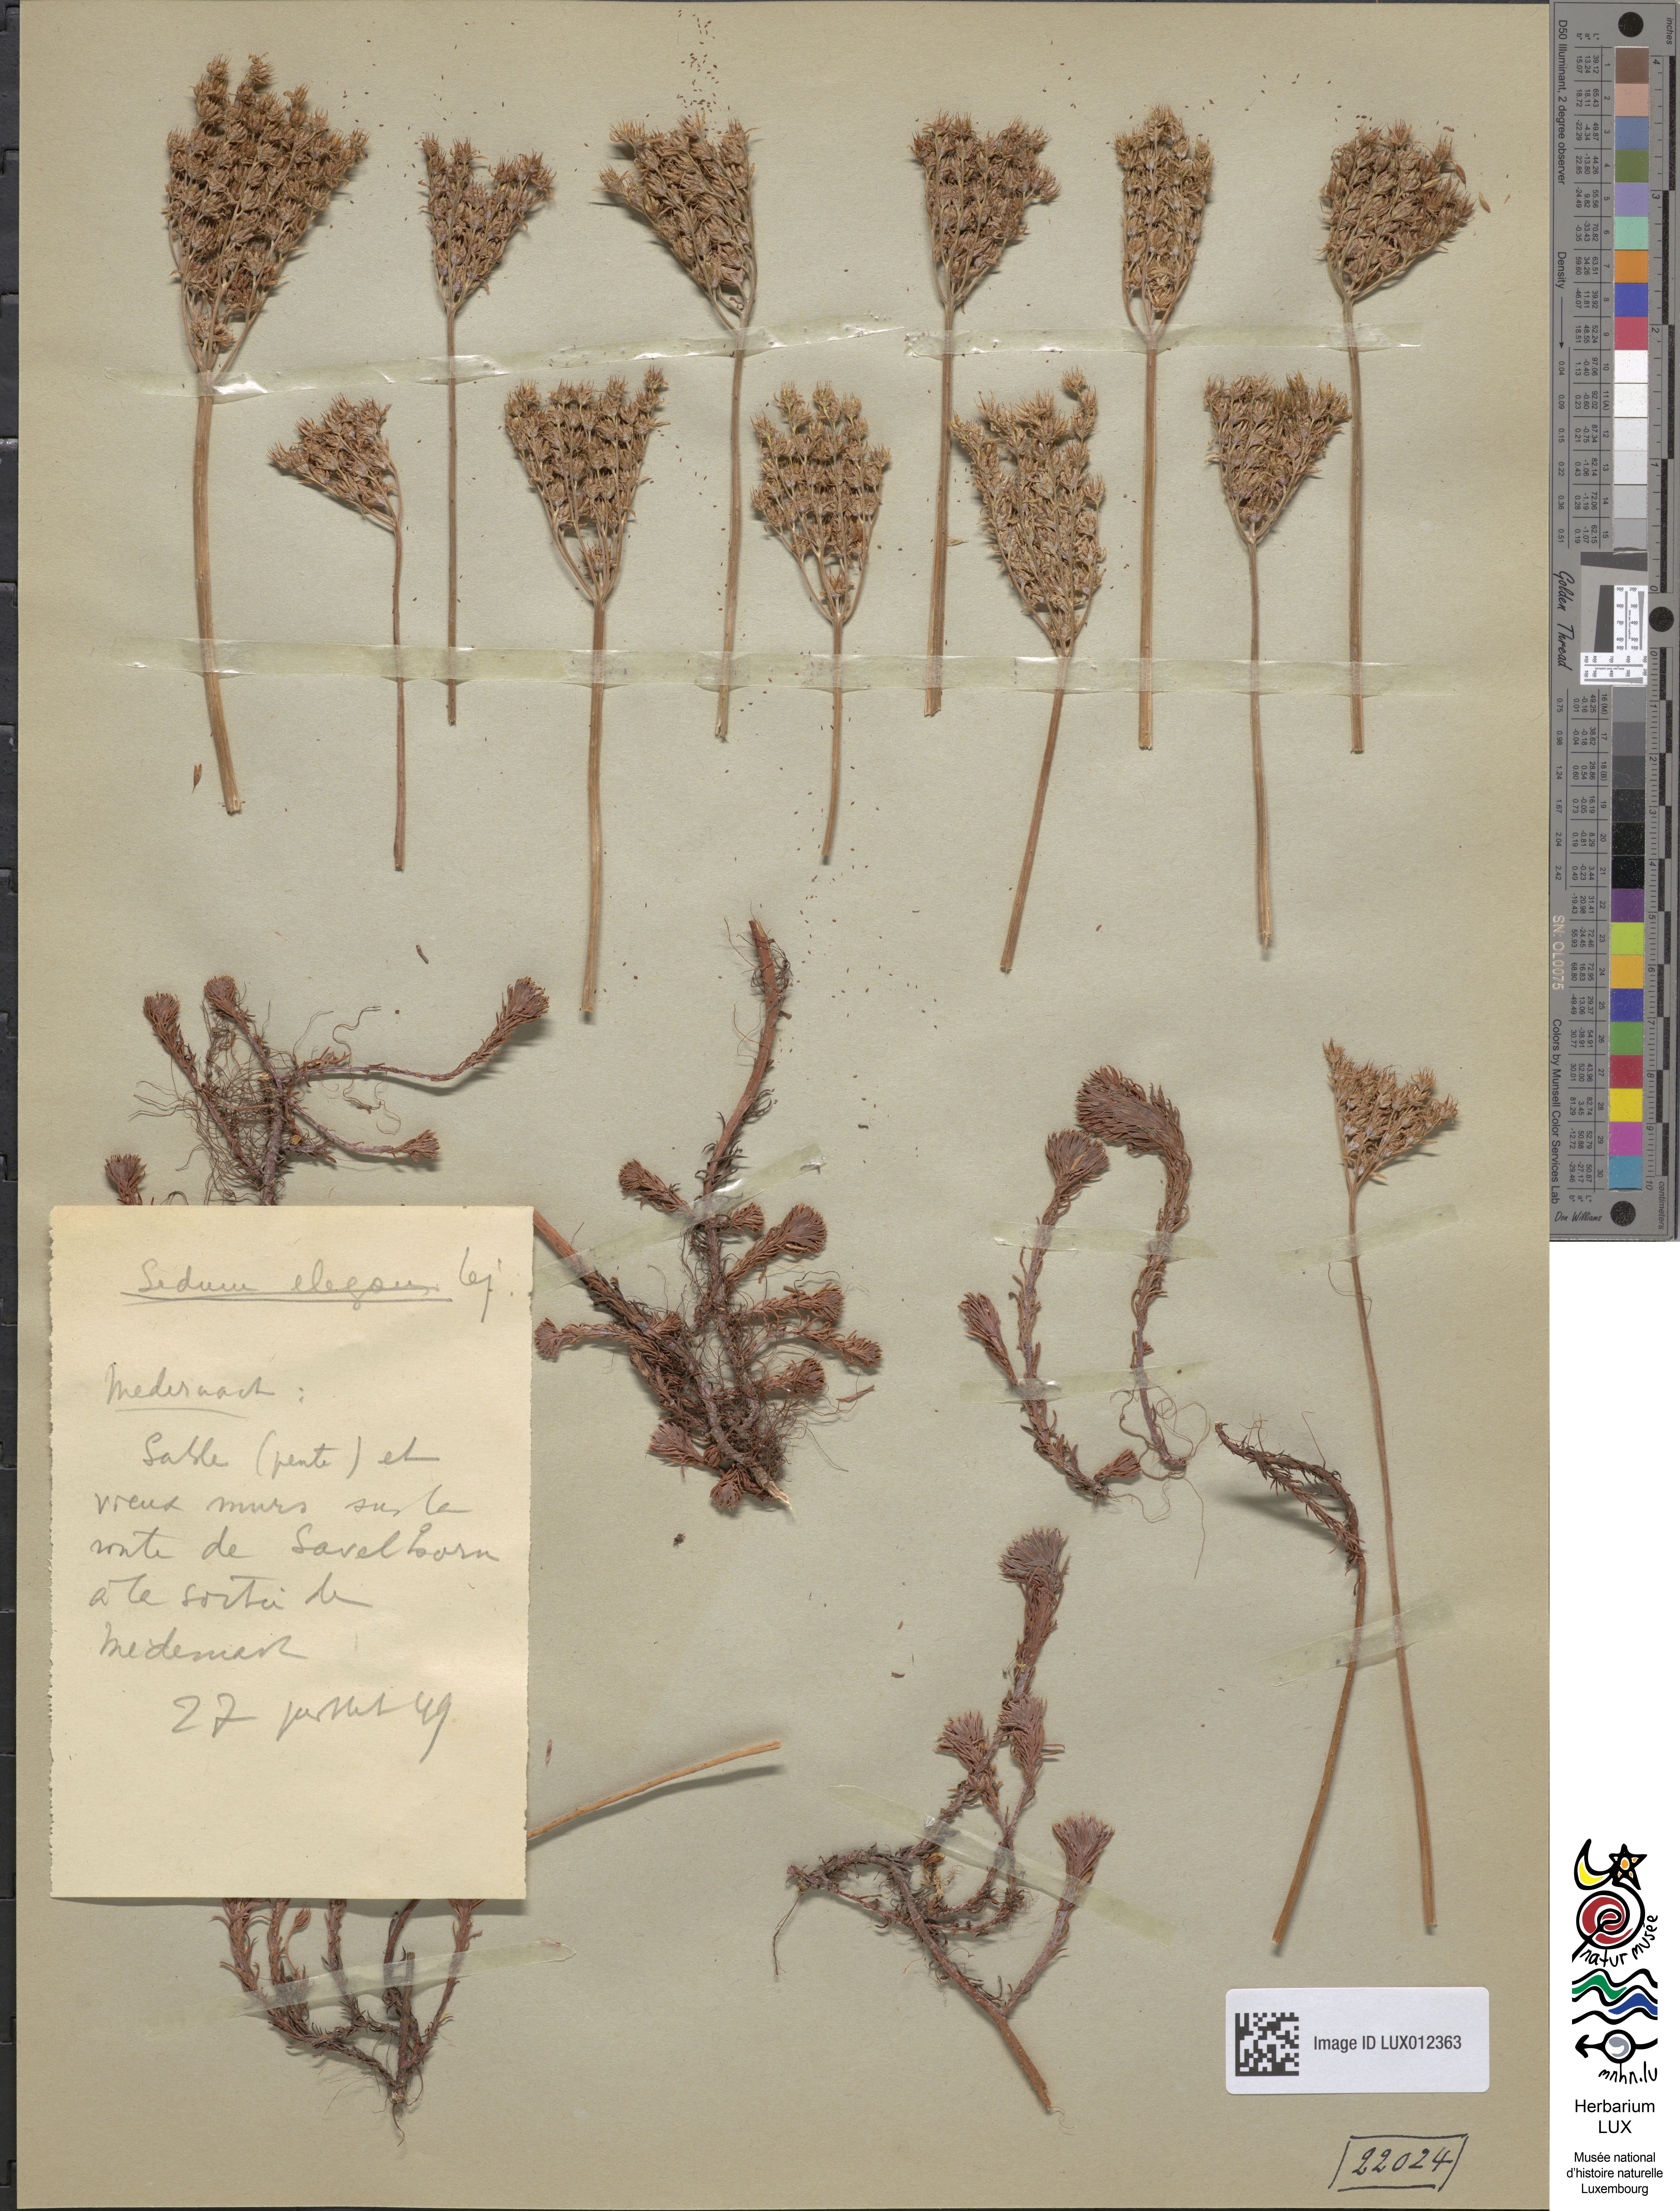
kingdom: Plantae
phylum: Tracheophyta
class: Magnoliopsida
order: Saxifragales
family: Crassulaceae
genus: Petrosedum
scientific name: Petrosedum forsterianum
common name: Forster's stonecrop
